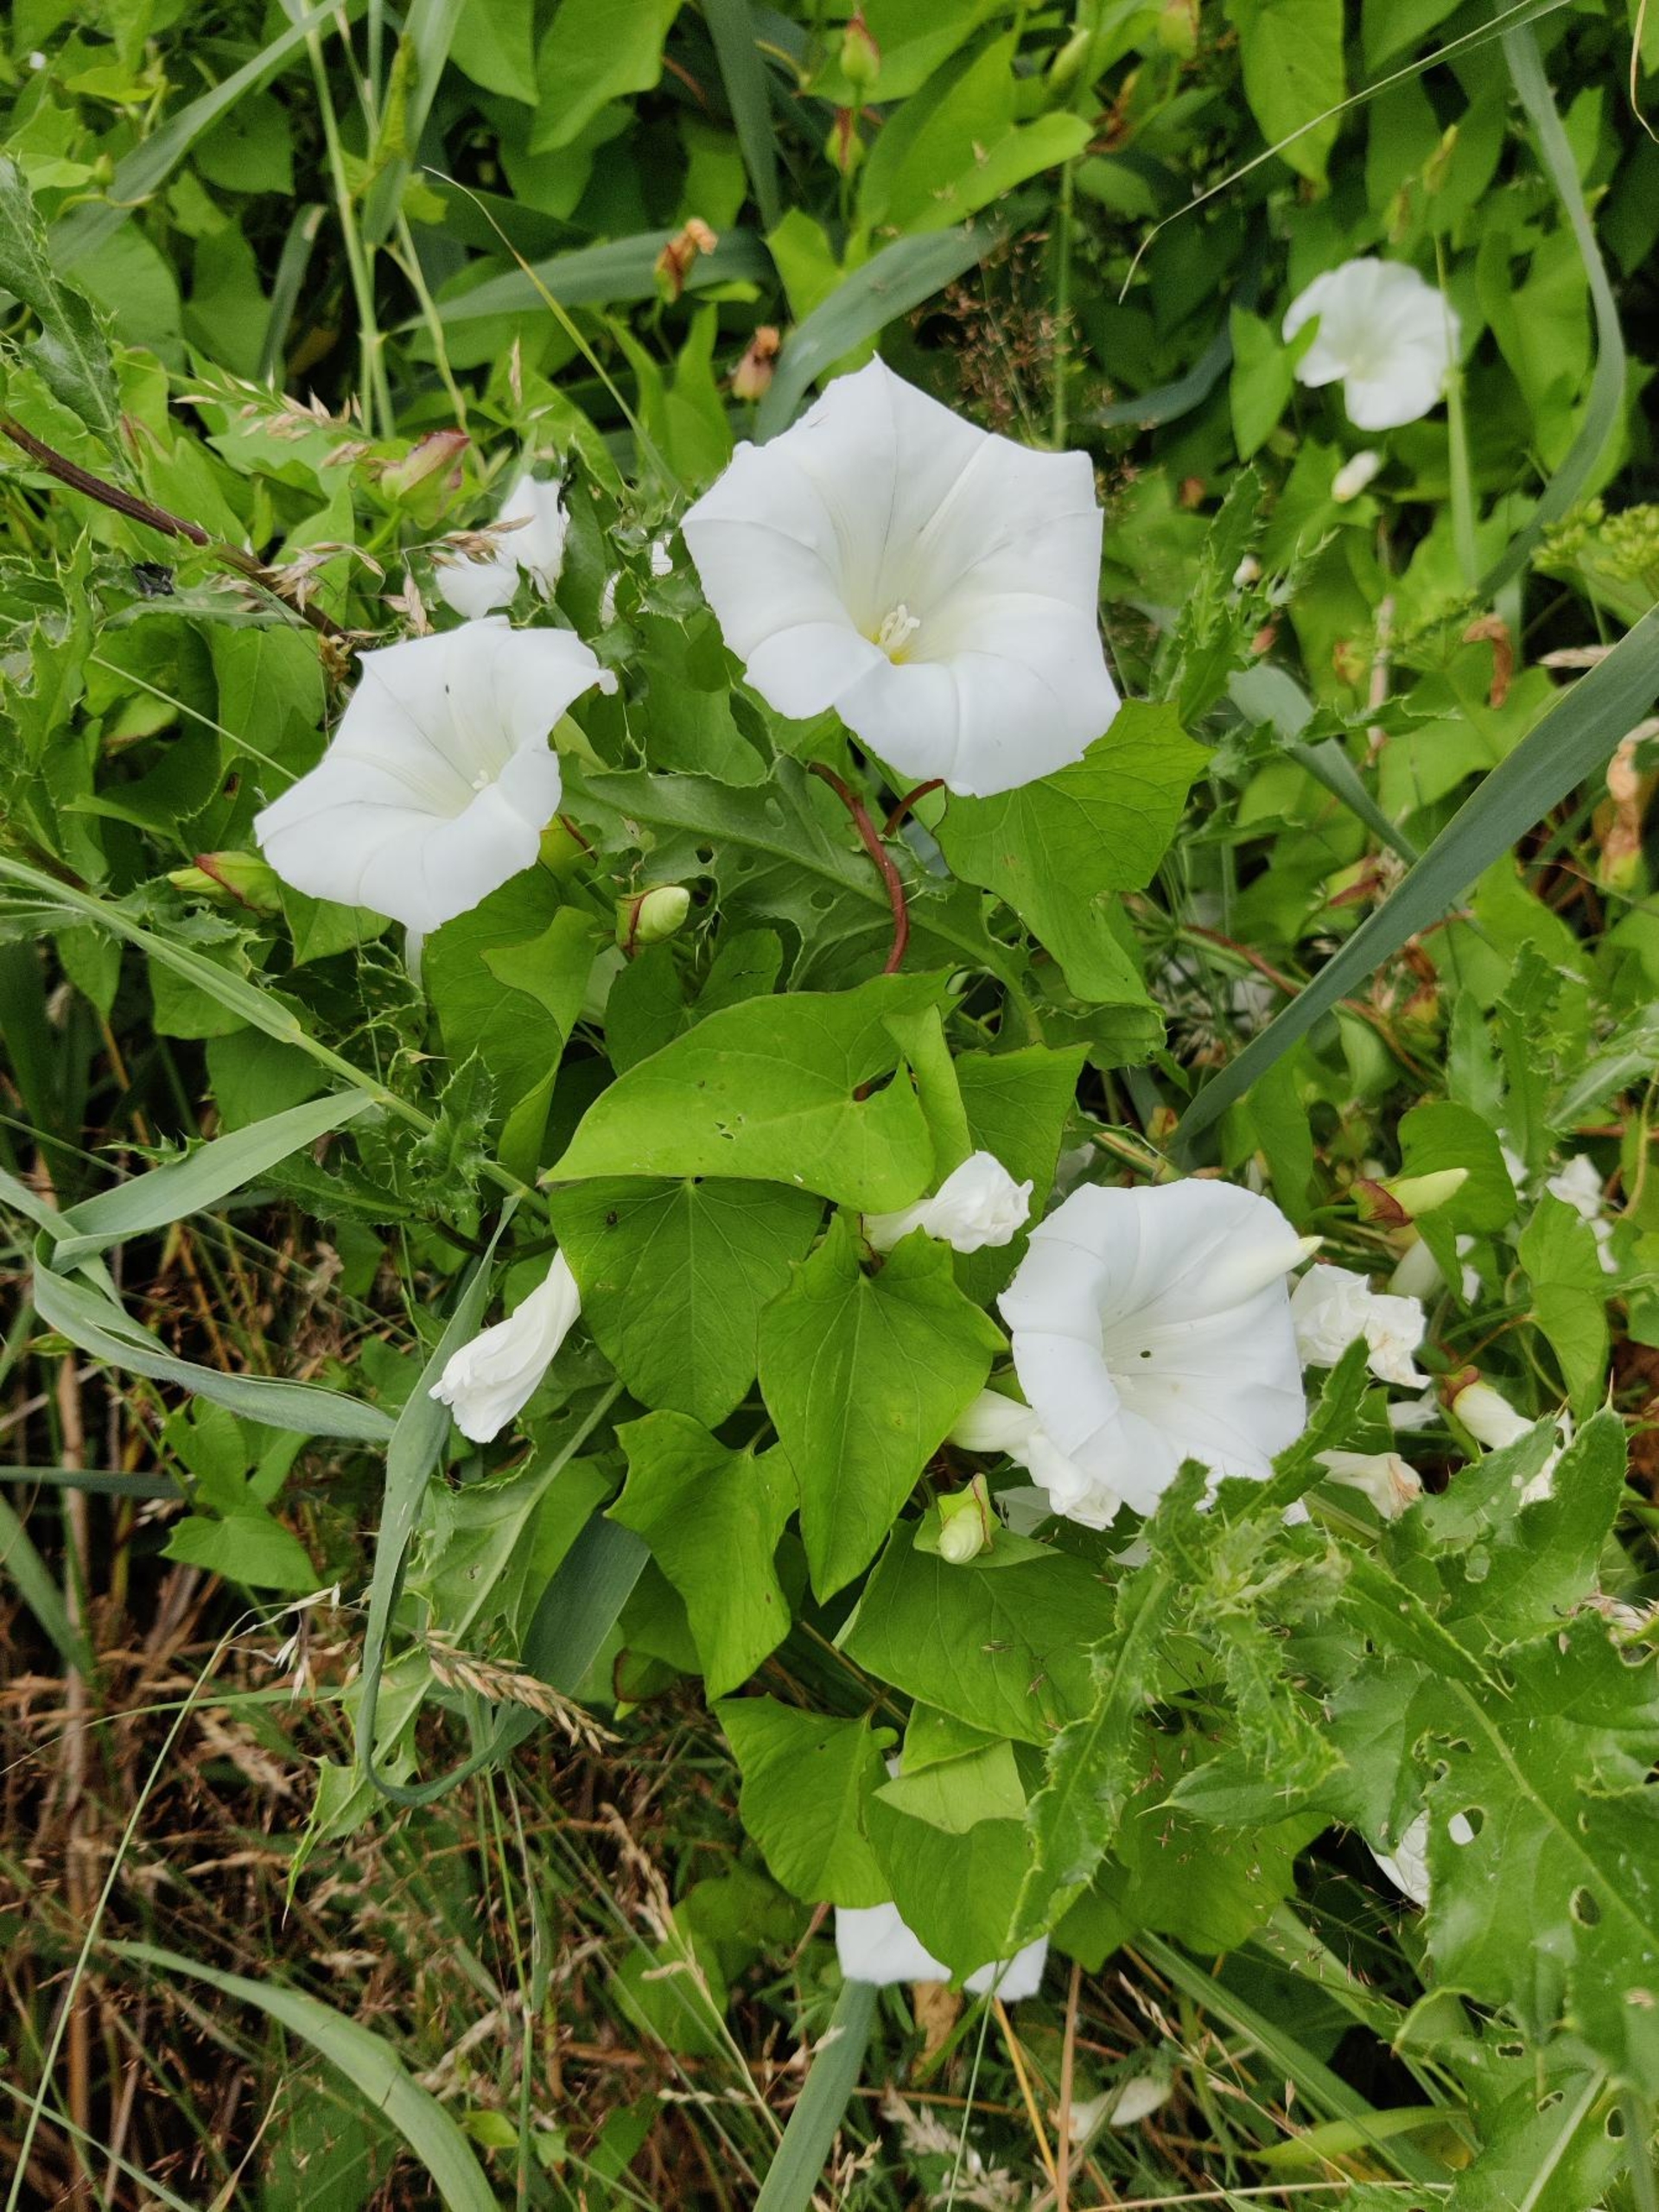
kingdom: Plantae
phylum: Tracheophyta
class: Magnoliopsida
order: Solanales
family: Convolvulaceae
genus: Calystegia
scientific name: Calystegia sepium
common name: Gærde-snerle
